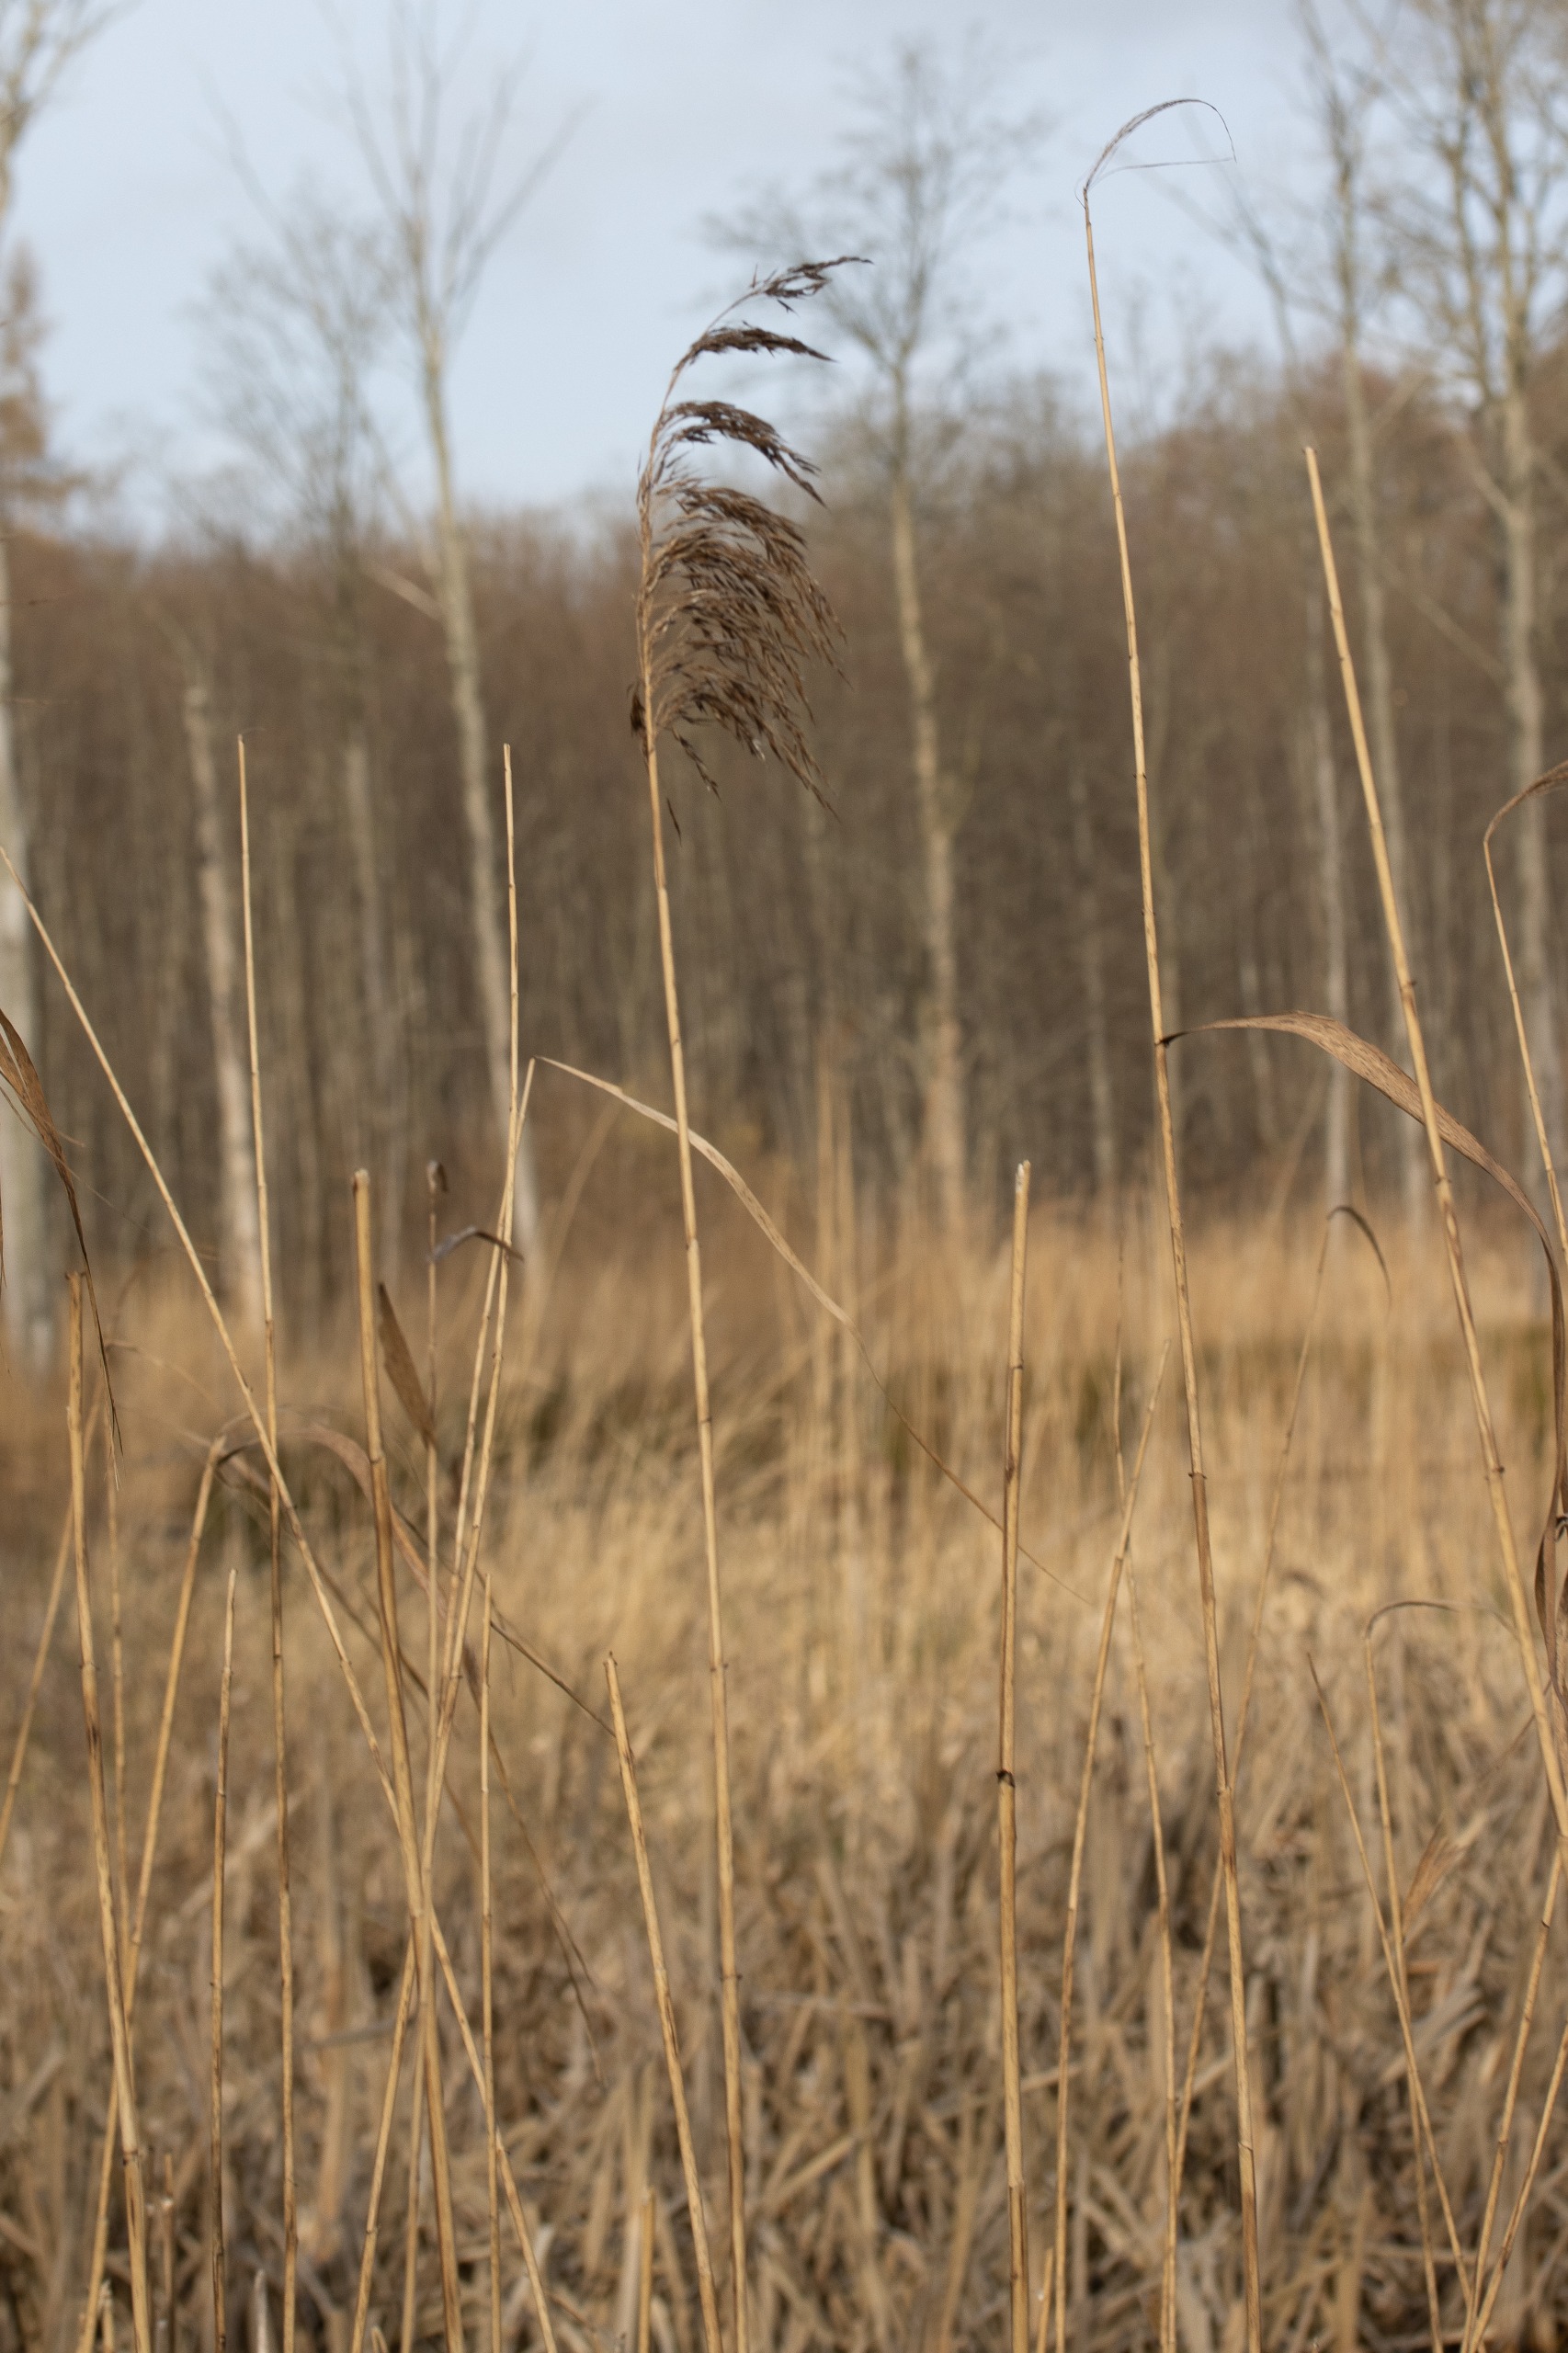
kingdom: Plantae
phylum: Tracheophyta
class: Liliopsida
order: Poales
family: Poaceae
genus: Phragmites
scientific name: Phragmites australis
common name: Tagrør
